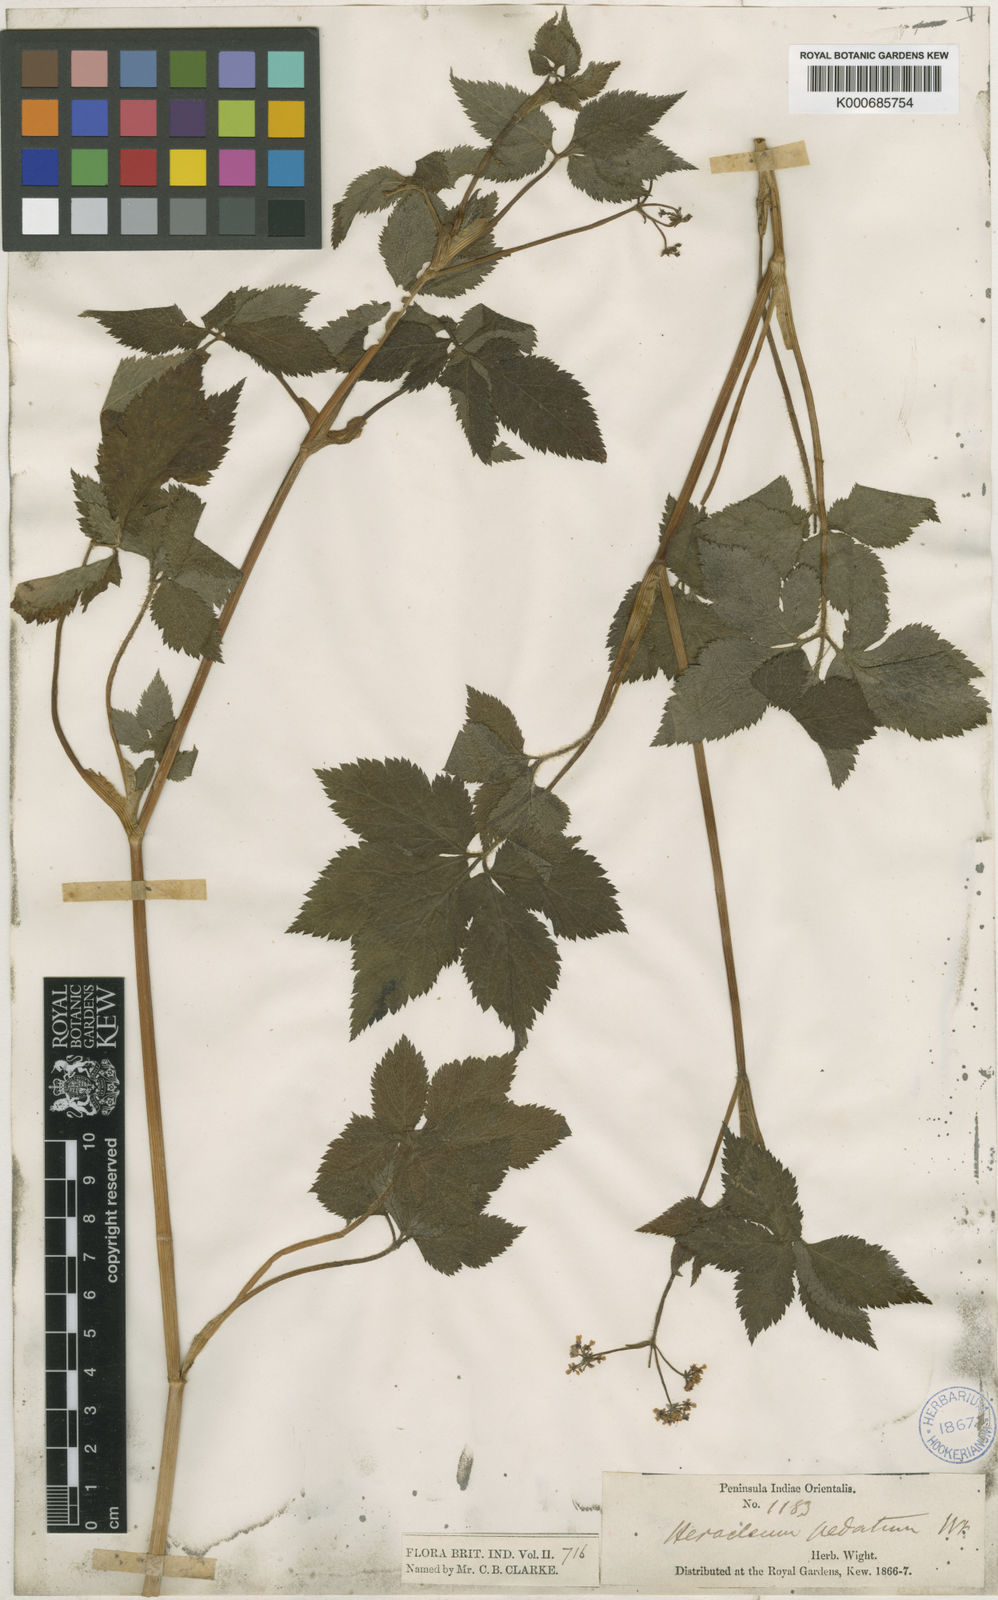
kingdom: Plantae
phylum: Tracheophyta
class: Magnoliopsida
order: Apiales
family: Apiaceae
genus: Vanasushava
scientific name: Vanasushava pedata
